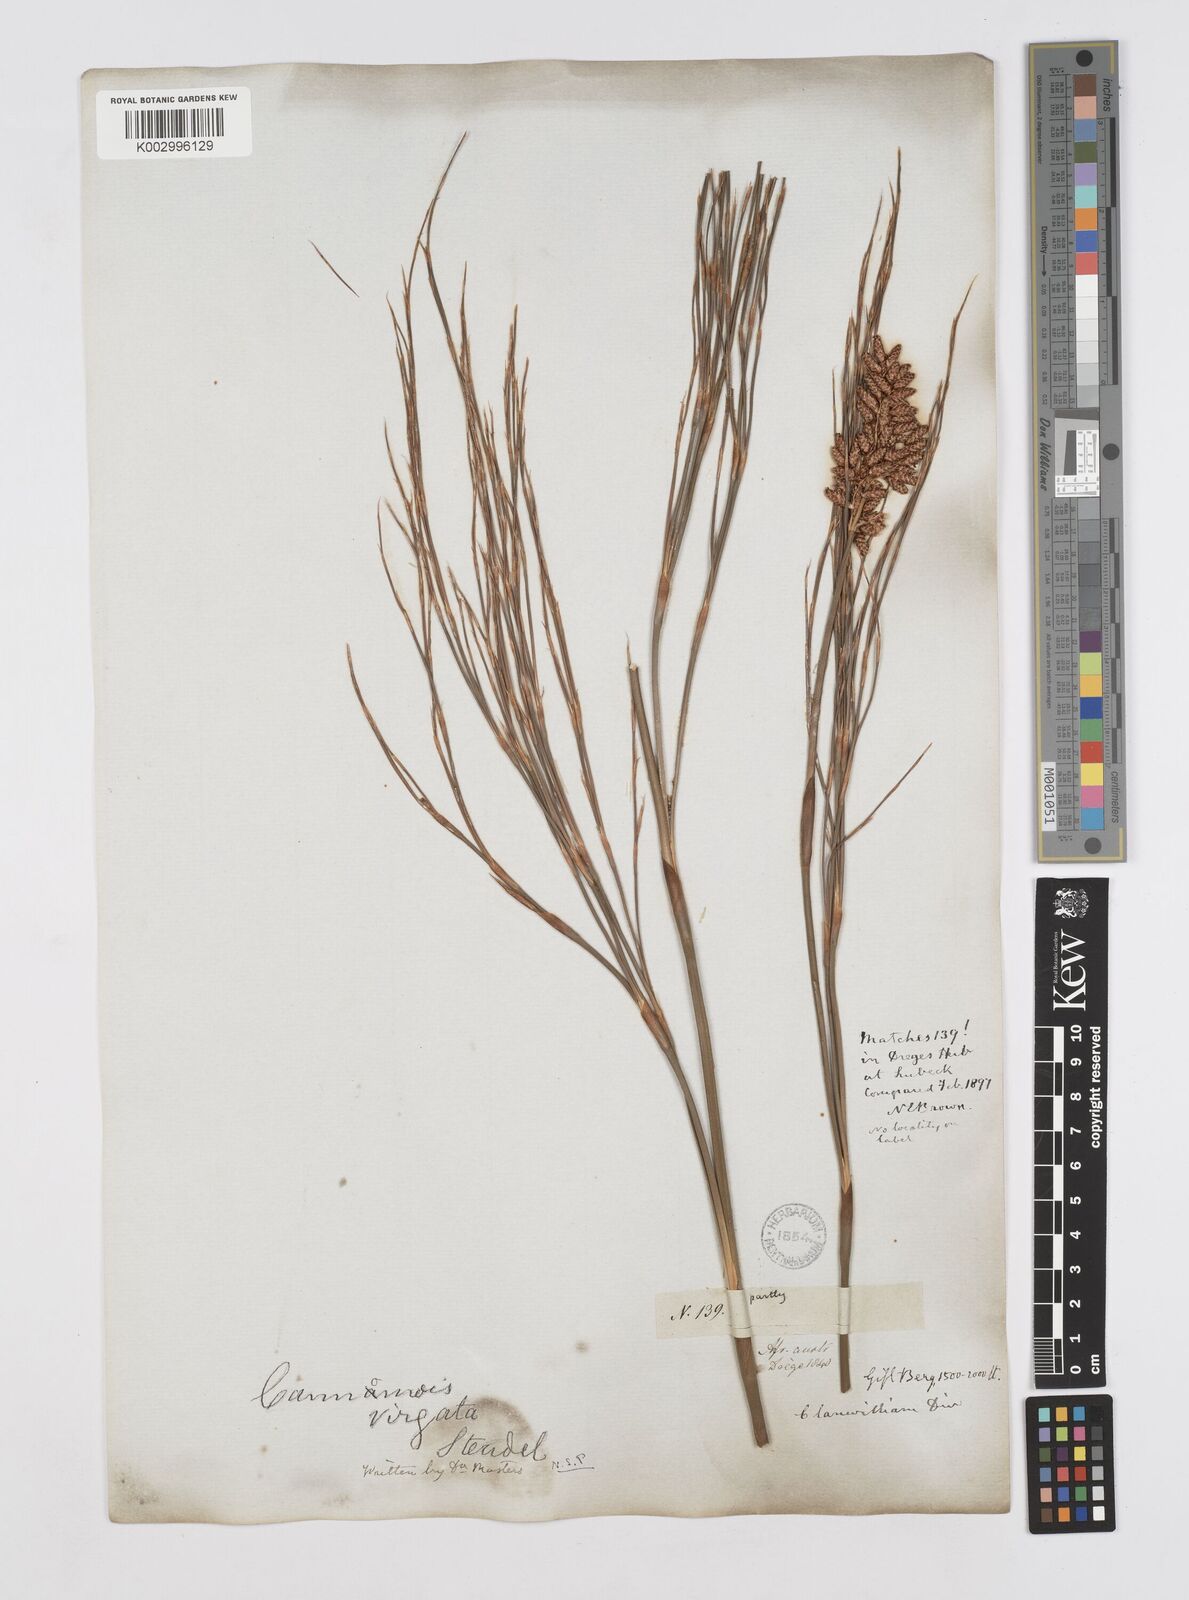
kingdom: Plantae
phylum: Tracheophyta
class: Liliopsida
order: Poales
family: Restionaceae
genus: Cannomois
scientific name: Cannomois virgata
